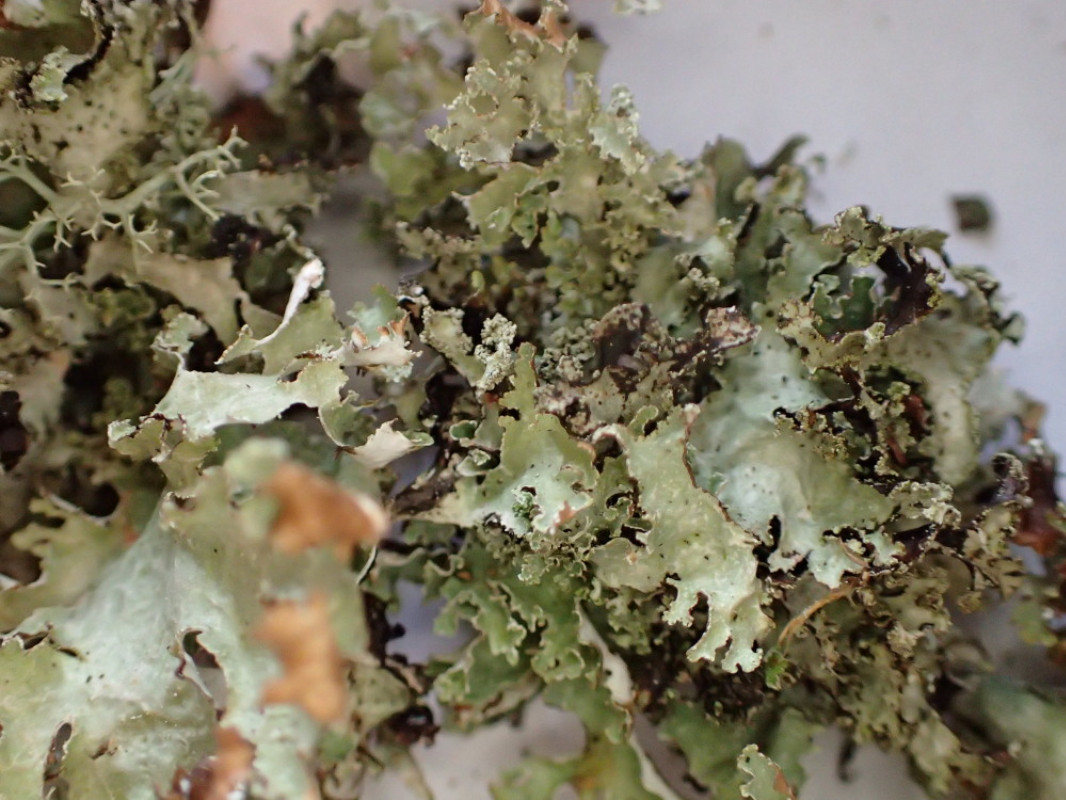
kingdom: Fungi
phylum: Ascomycota
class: Lecanoromycetes
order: Lecanorales
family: Parmeliaceae
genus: Platismatia
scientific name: Platismatia glauca
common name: blågrå papirlav
